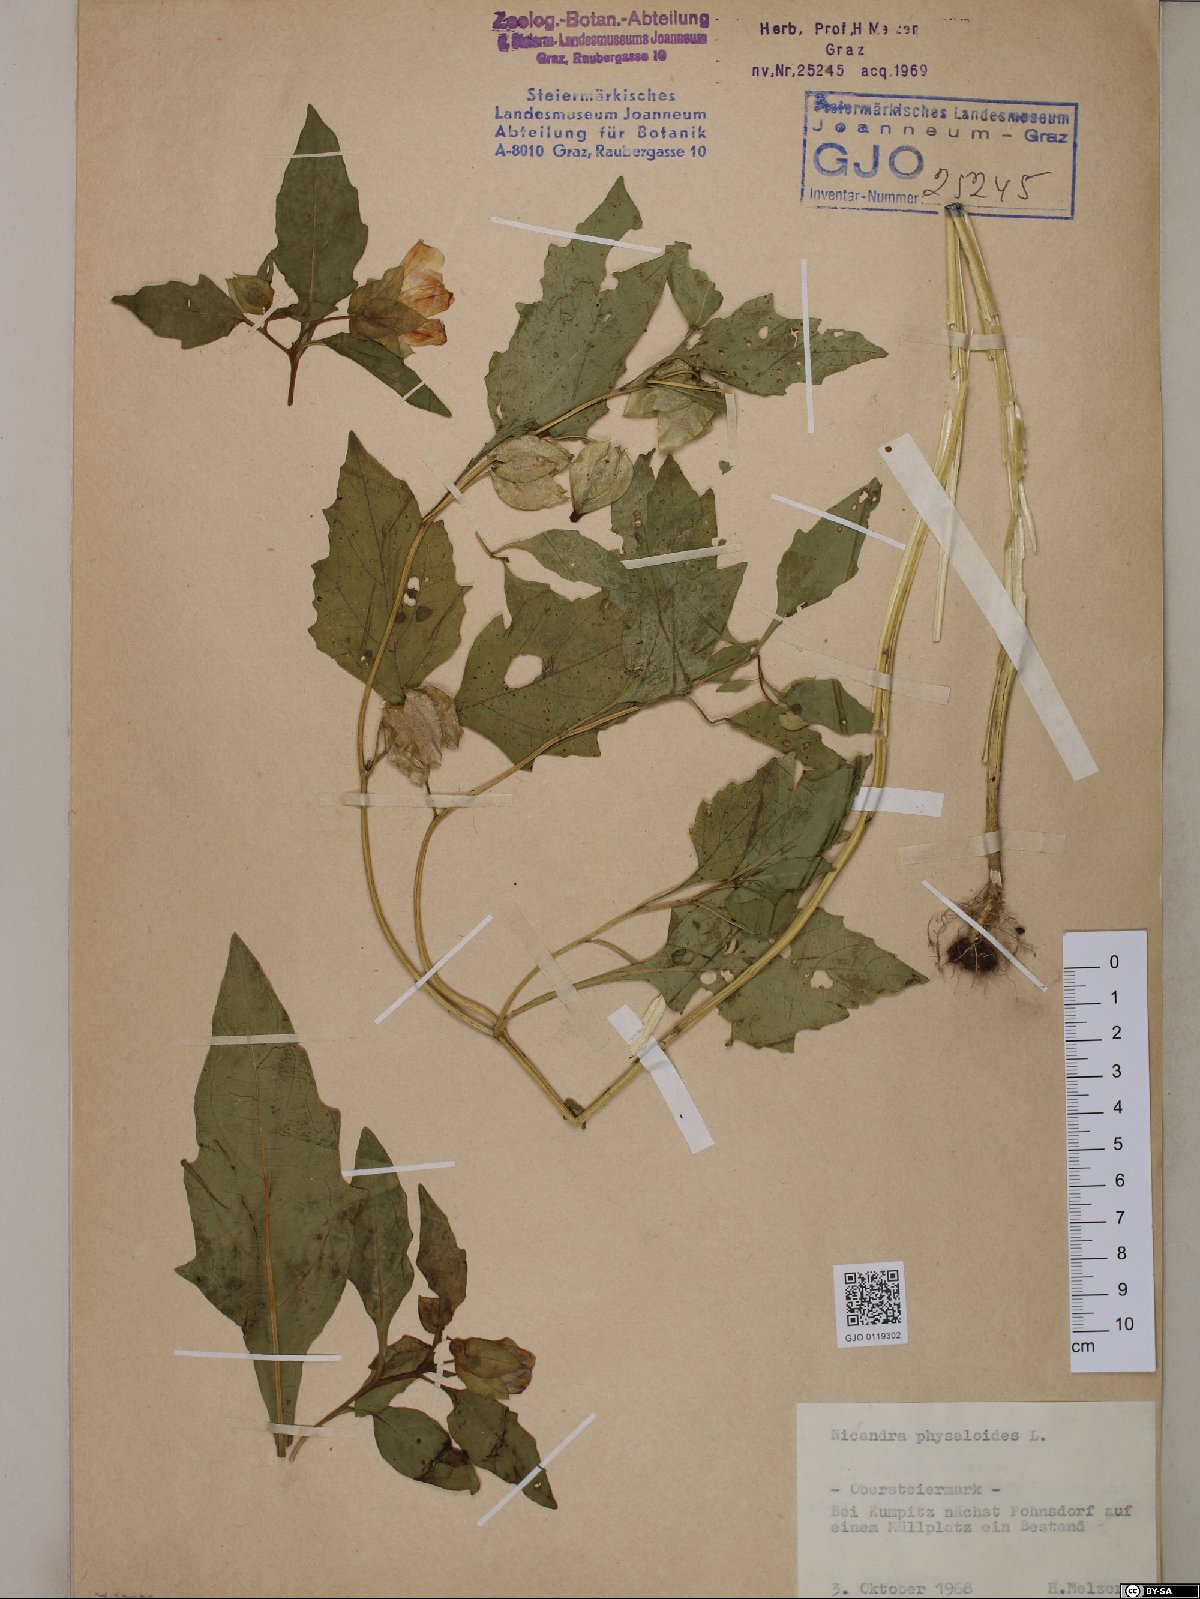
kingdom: Plantae
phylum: Tracheophyta
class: Magnoliopsida
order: Solanales
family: Solanaceae
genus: Nicandra
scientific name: Nicandra physalodes
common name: Apple-of-peru
